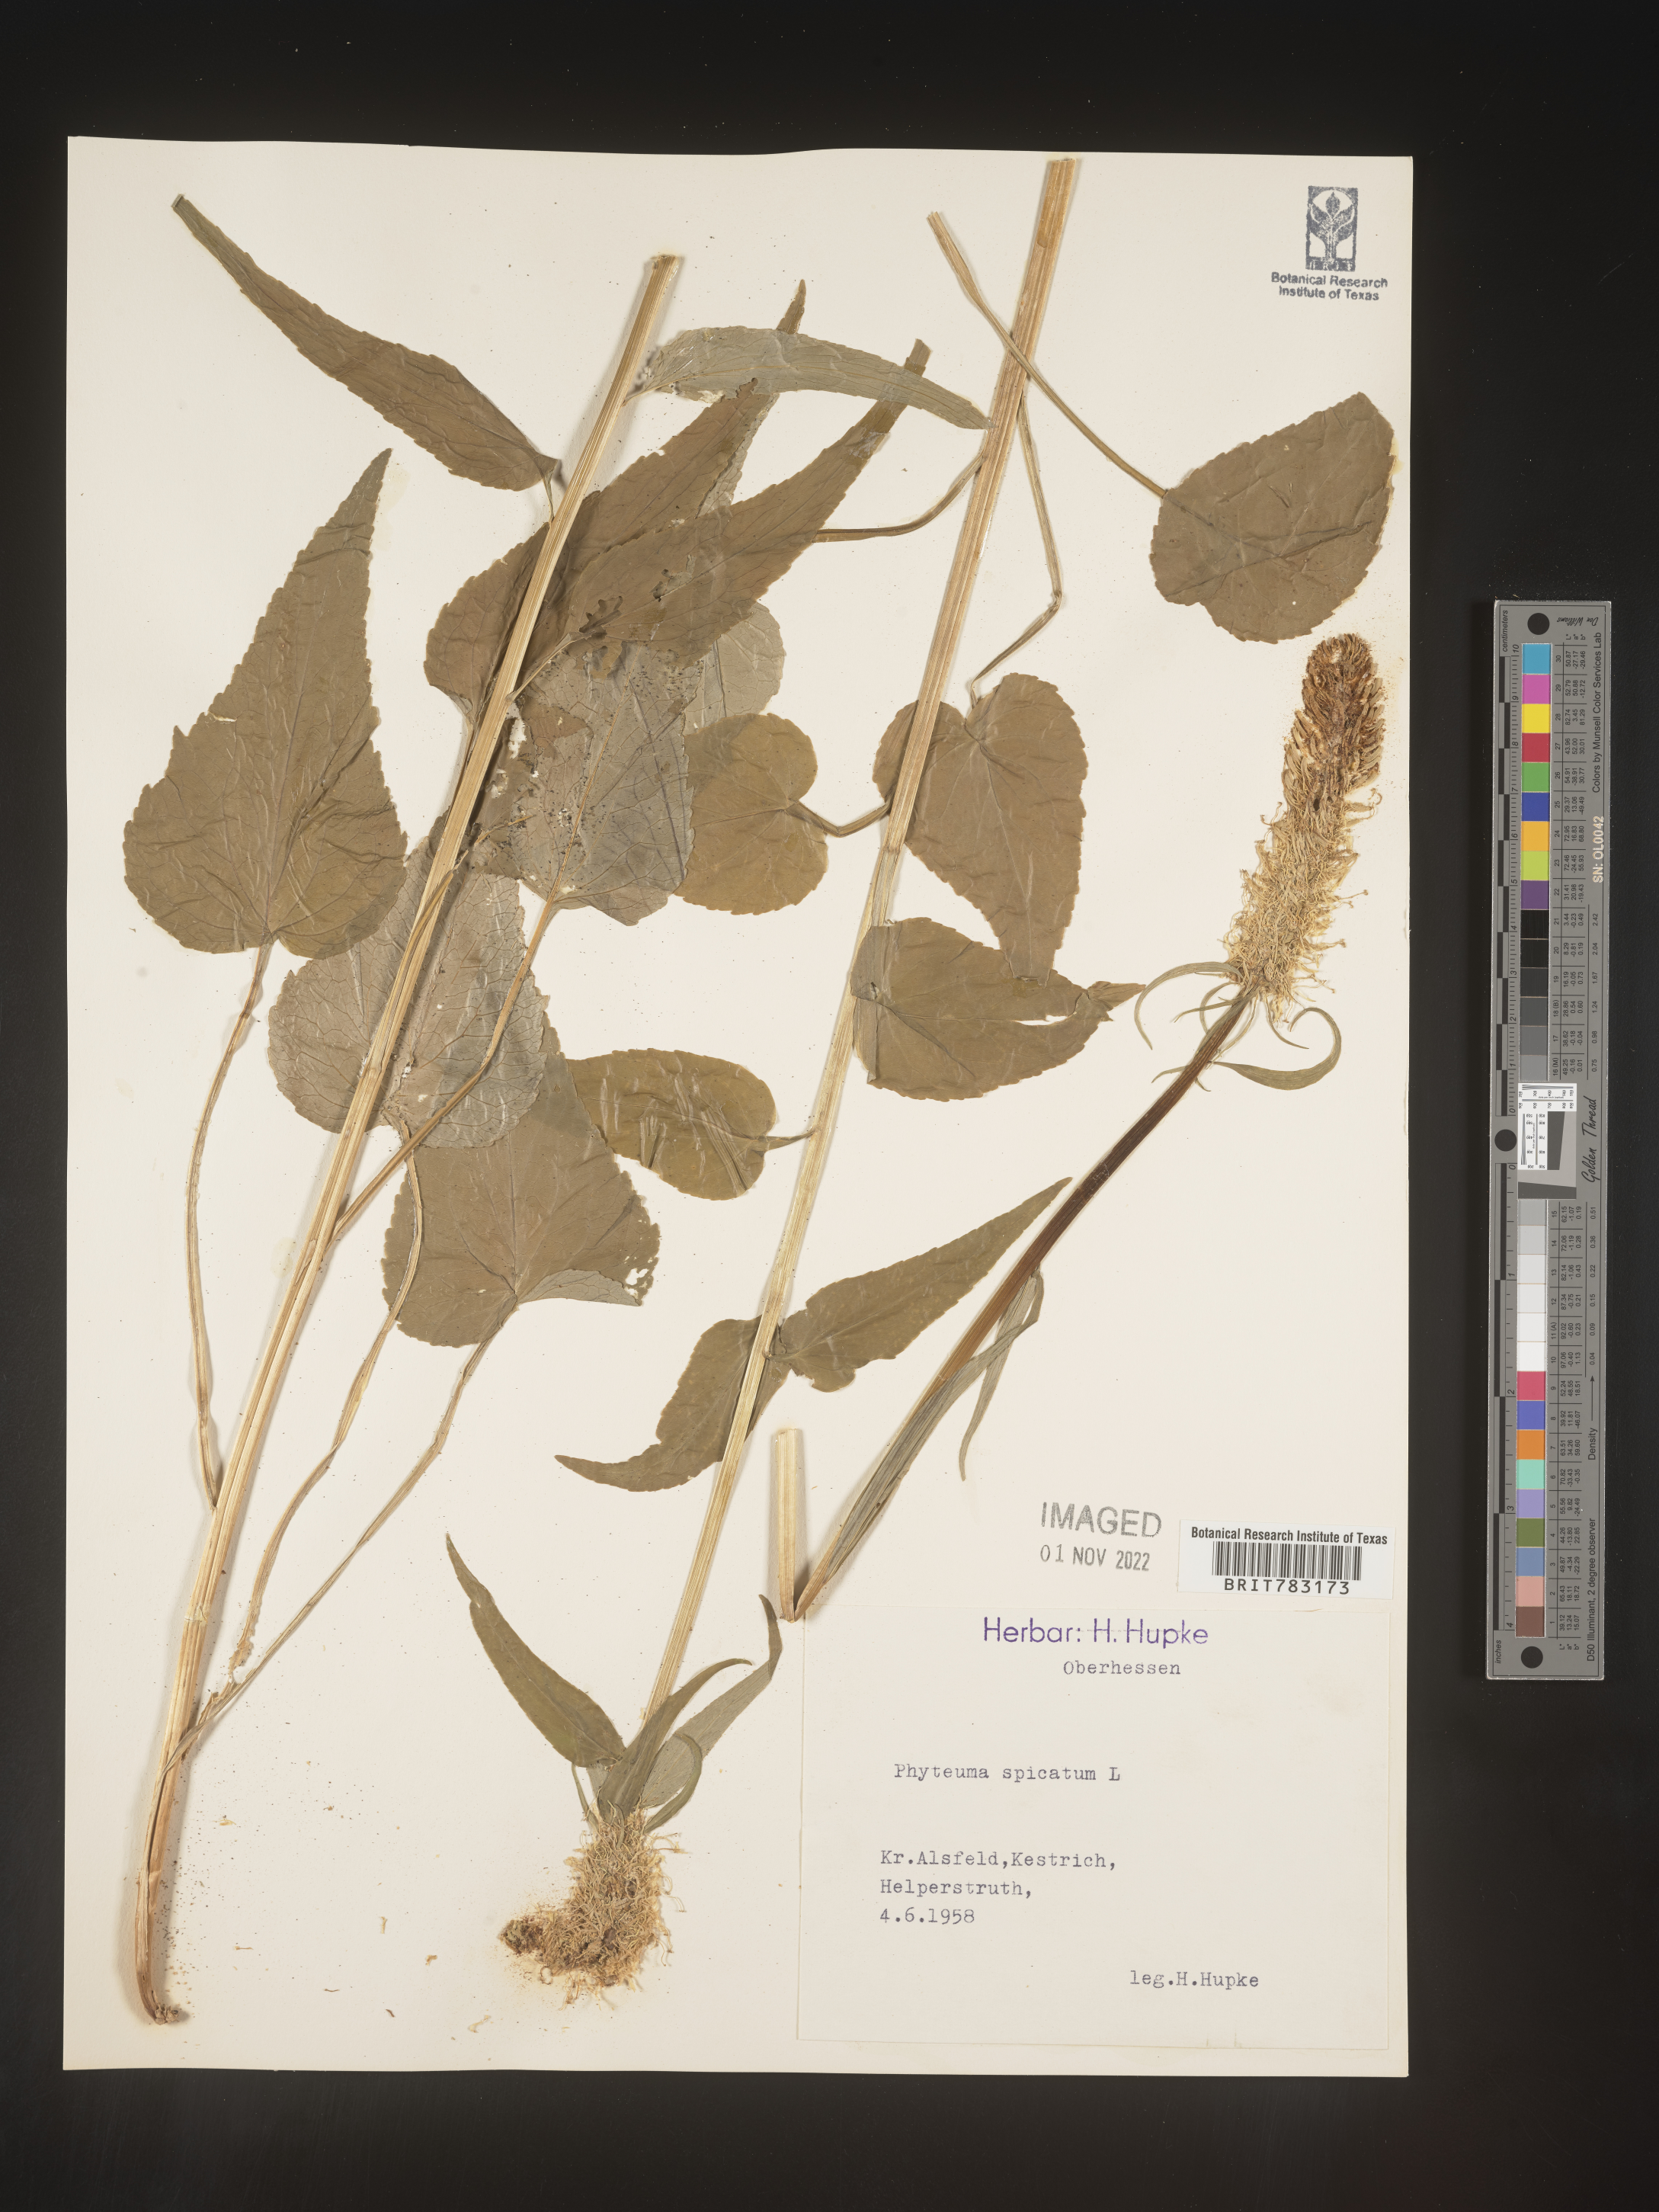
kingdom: Plantae
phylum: Tracheophyta
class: Magnoliopsida
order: Asterales
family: Campanulaceae
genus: Phyteuma
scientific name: Phyteuma
